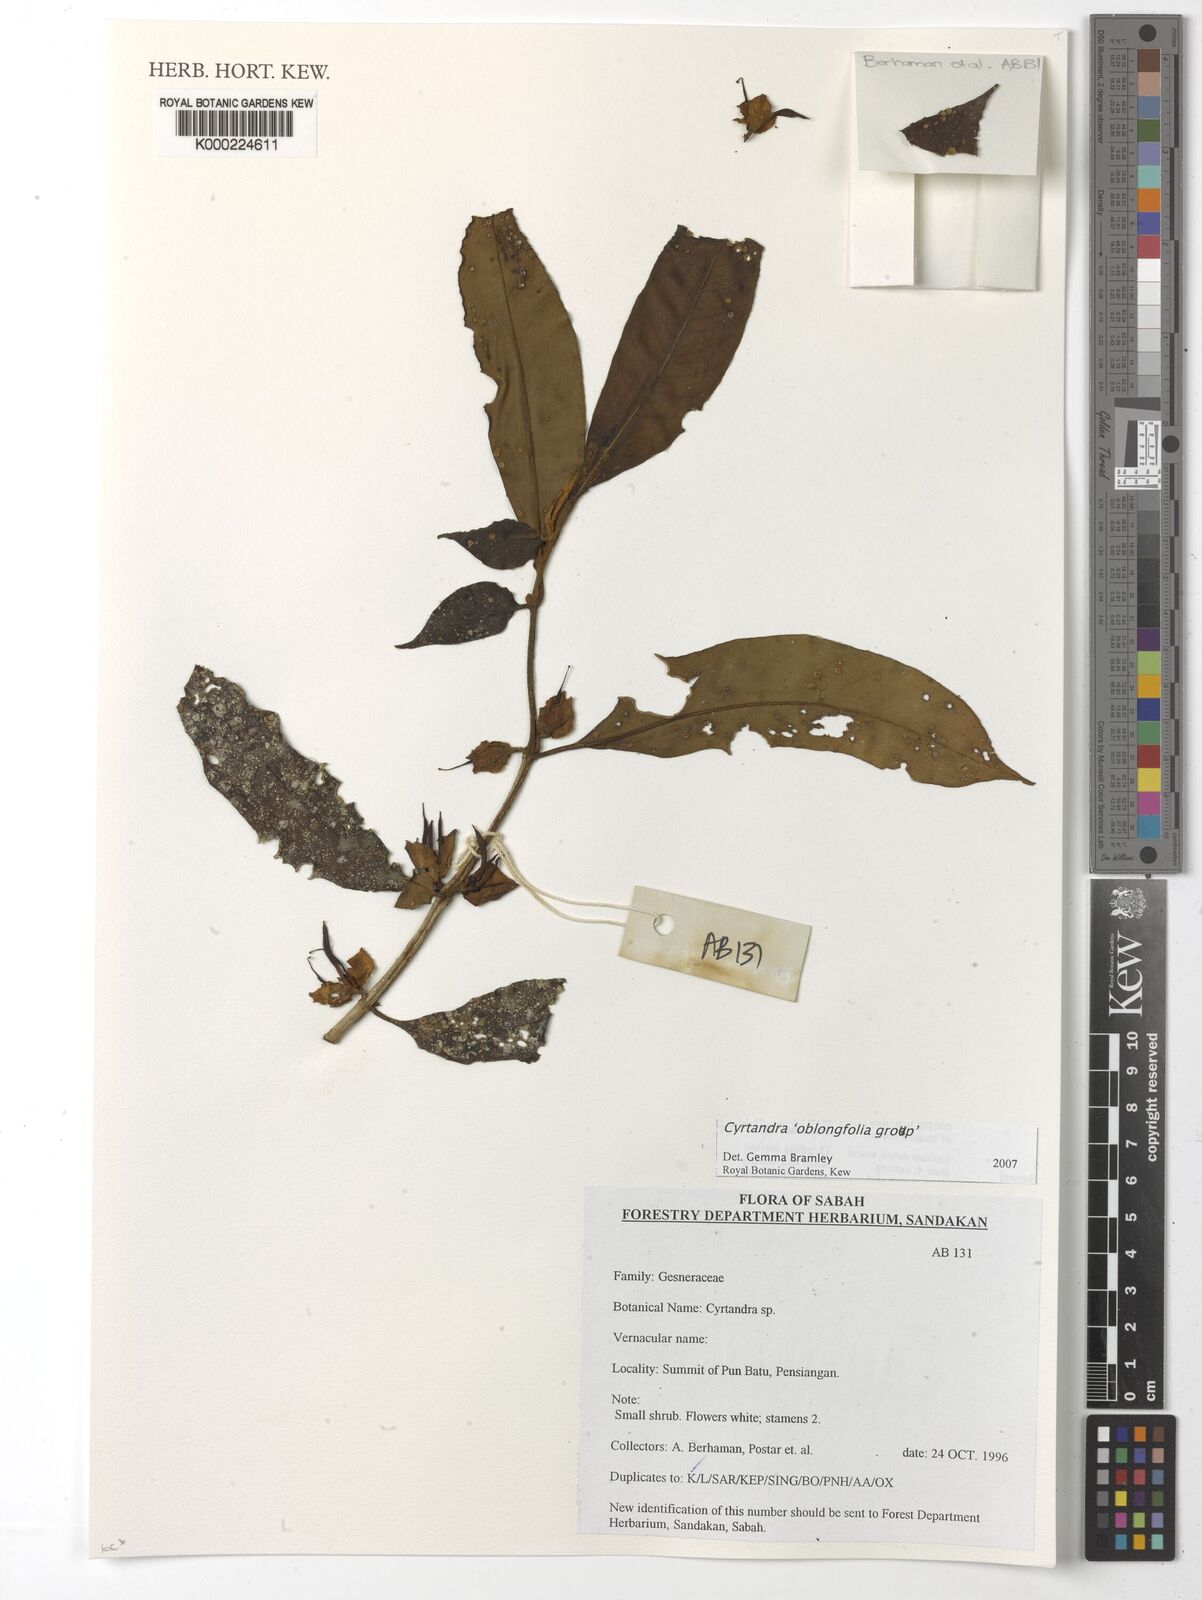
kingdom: Plantae
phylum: Tracheophyta
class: Magnoliopsida
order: Lamiales
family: Gesneriaceae
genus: Cyrtandra
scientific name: Cyrtandra
